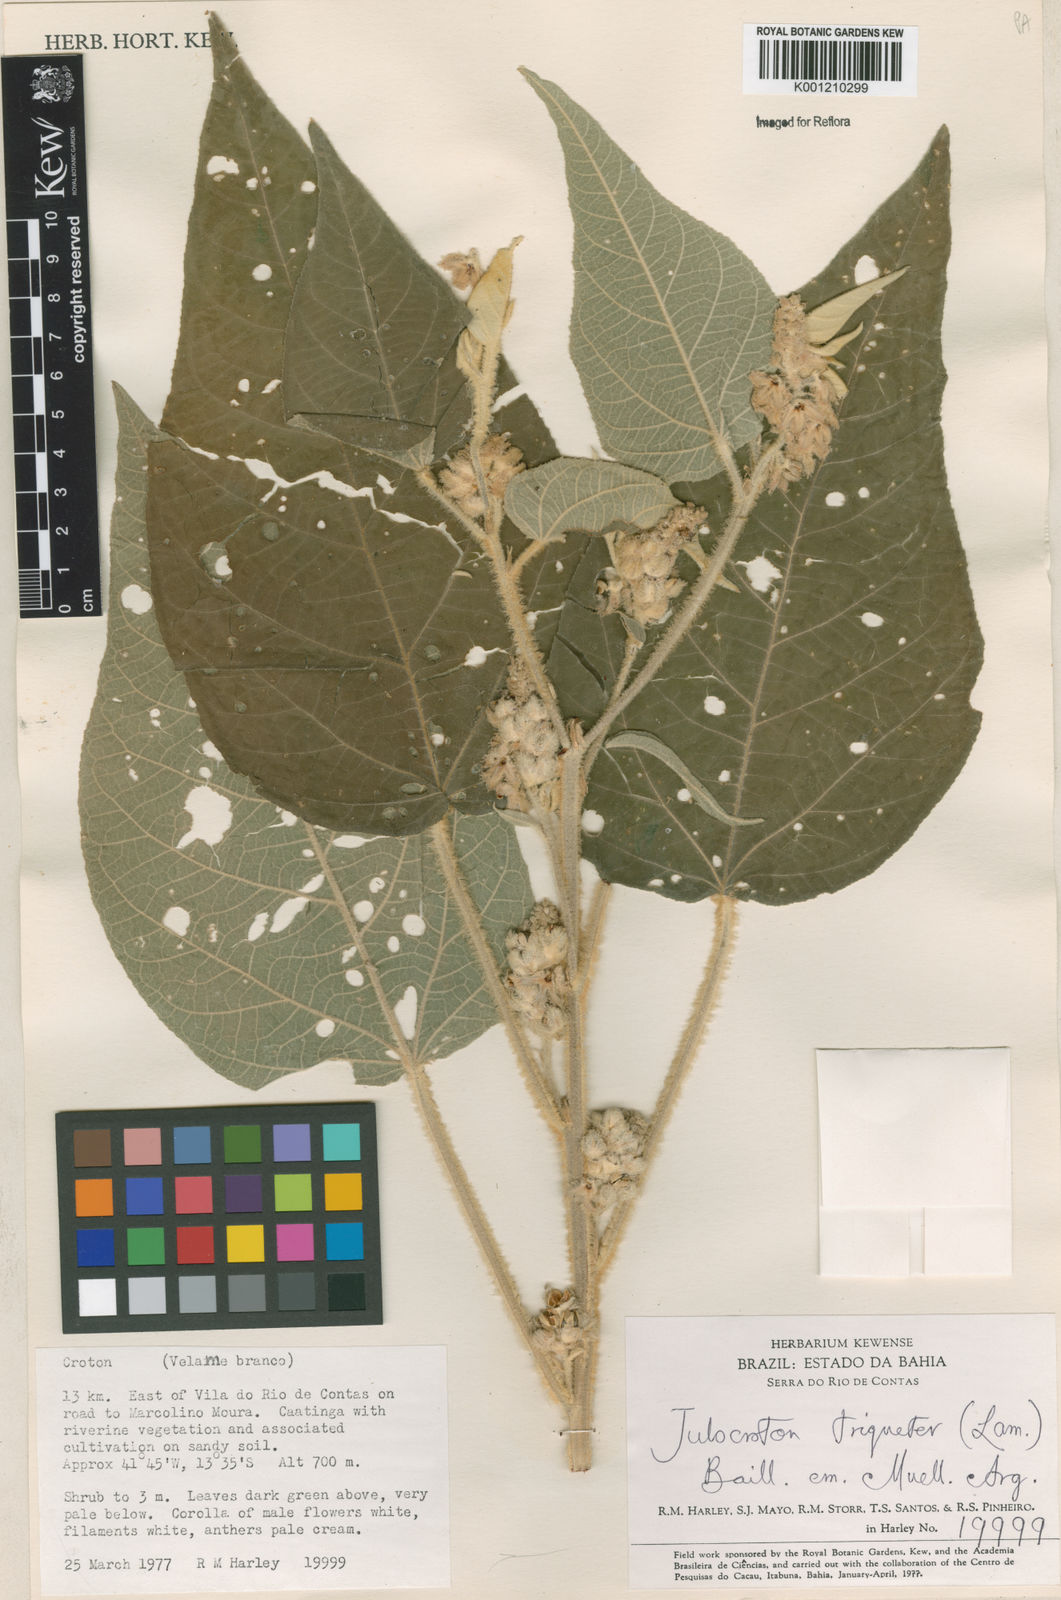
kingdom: Plantae
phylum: Tracheophyta
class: Magnoliopsida
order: Malpighiales
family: Euphorbiaceae
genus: Croton
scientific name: Croton triqueter
